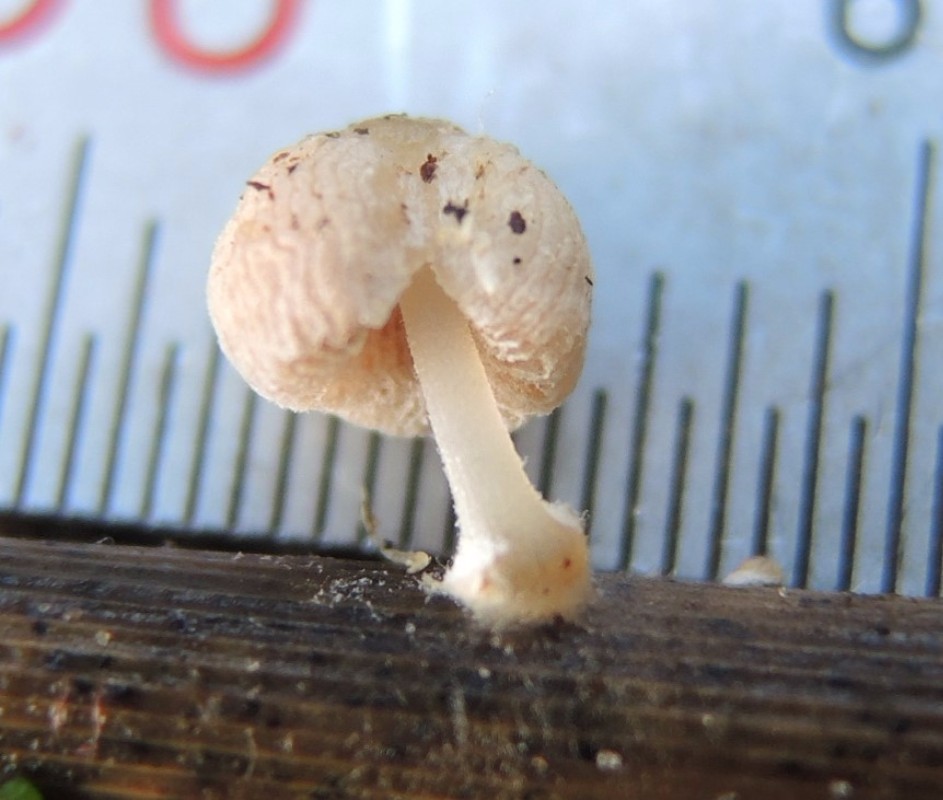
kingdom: Fungi
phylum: Basidiomycota
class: Agaricomycetes
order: Agaricales
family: Psathyrellaceae
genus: Coprinopsis
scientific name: Coprinopsis kubickae
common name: amfibie-blækhat
